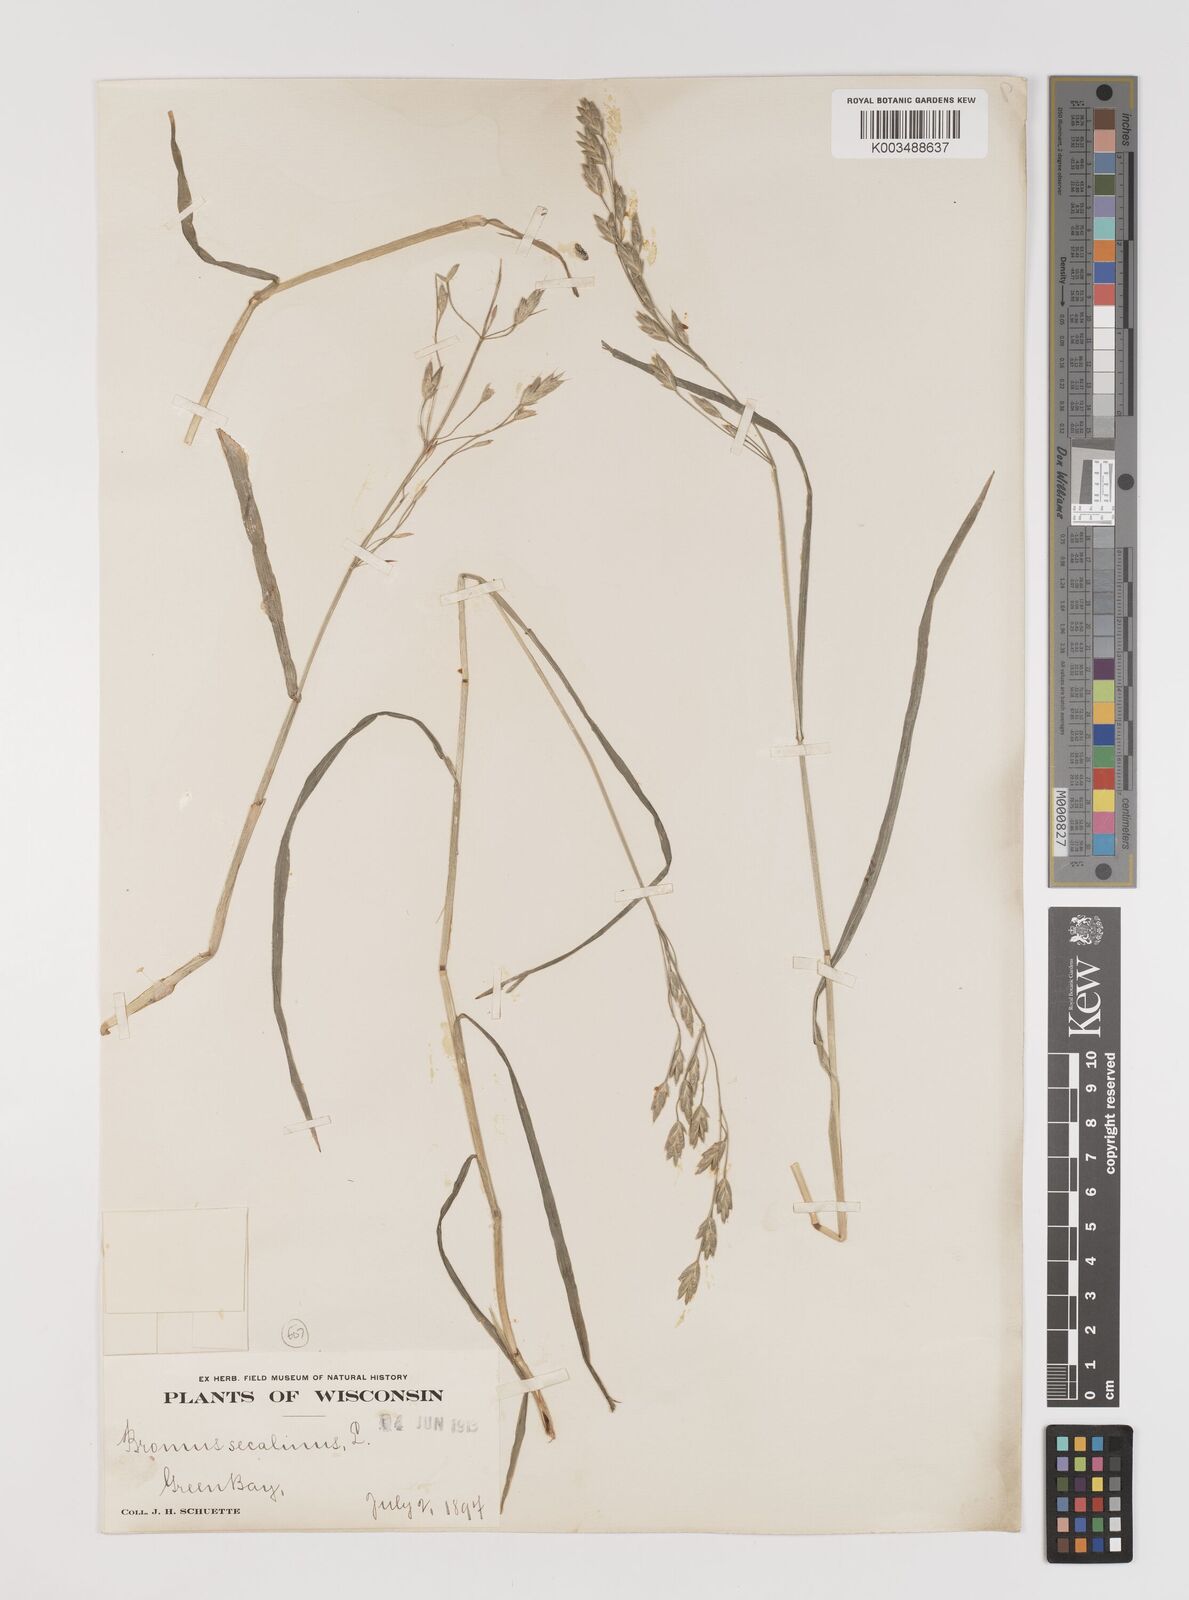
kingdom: Plantae
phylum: Tracheophyta
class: Liliopsida
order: Poales
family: Poaceae
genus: Bromus
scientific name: Bromus secalinus
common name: Rye brome
